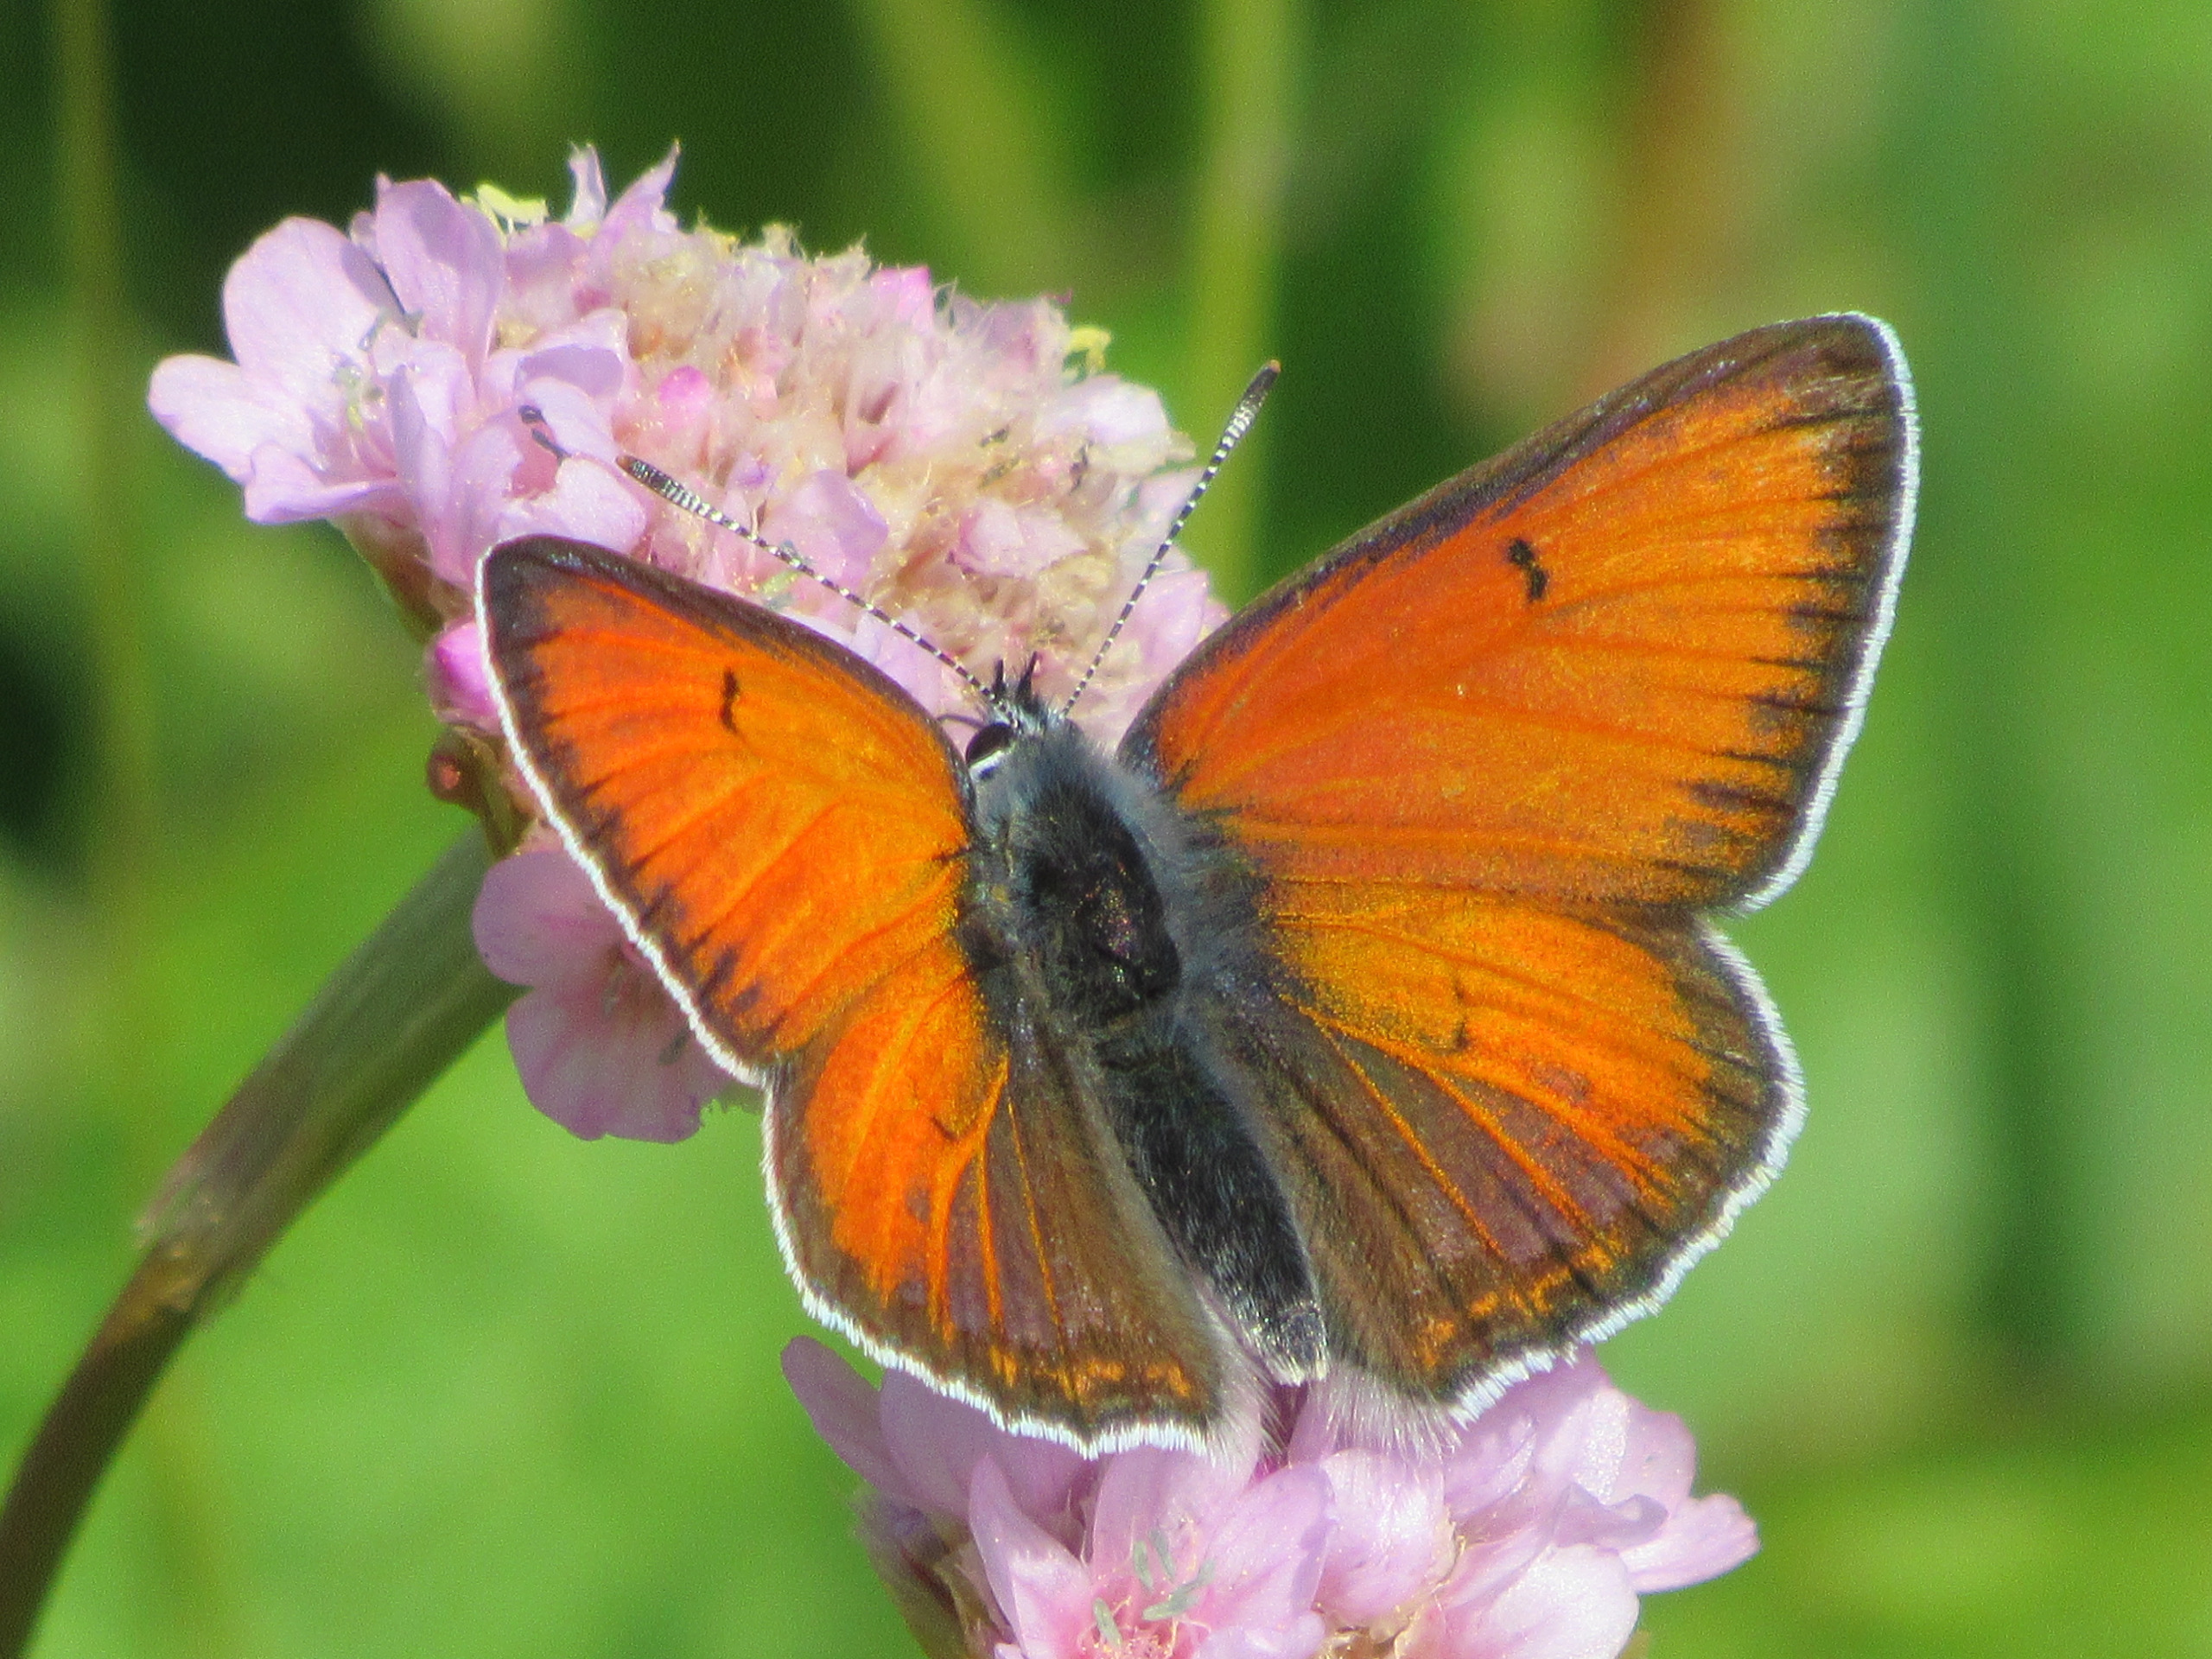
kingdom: Animalia
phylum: Arthropoda
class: Insecta
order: Lepidoptera
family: Lycaenidae
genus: Palaeochrysophanus
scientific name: Palaeochrysophanus hippothoe
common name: Violetrandet ildfugl
